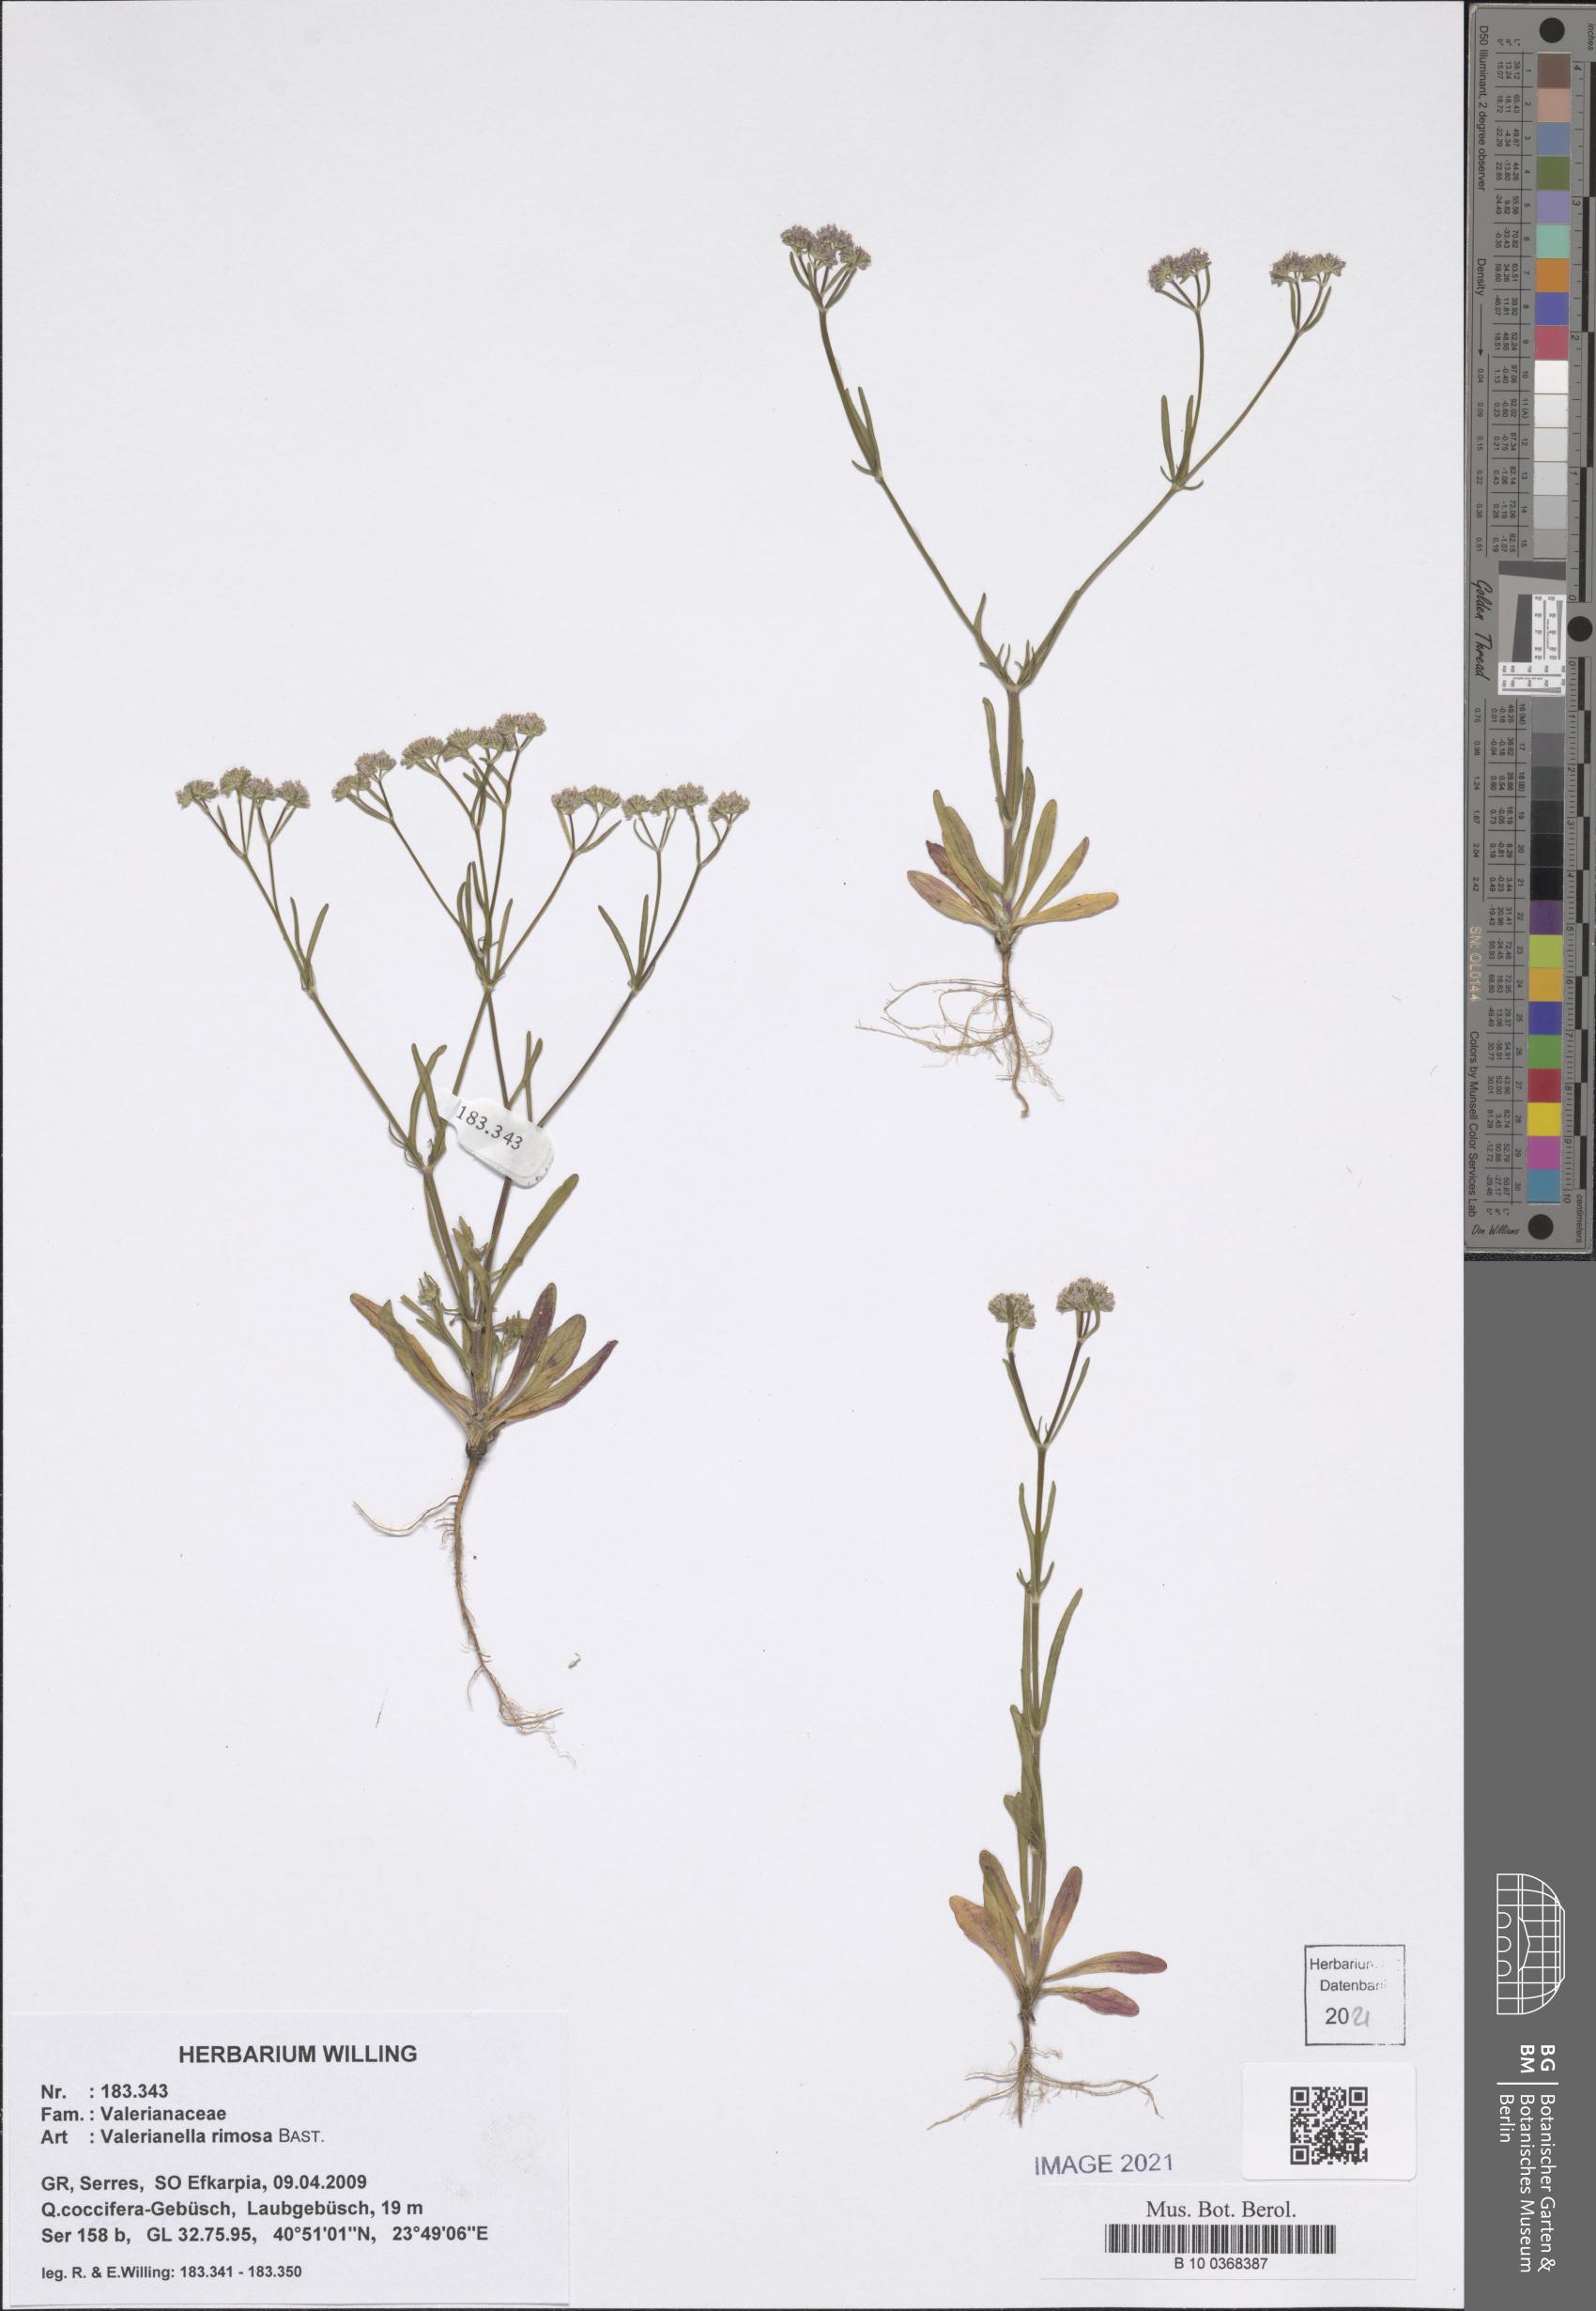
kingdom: Plantae
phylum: Tracheophyta
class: Magnoliopsida
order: Dipsacales
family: Caprifoliaceae
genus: Valerianella
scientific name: Valerianella rimosa
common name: Broad-fruited cornsalad
